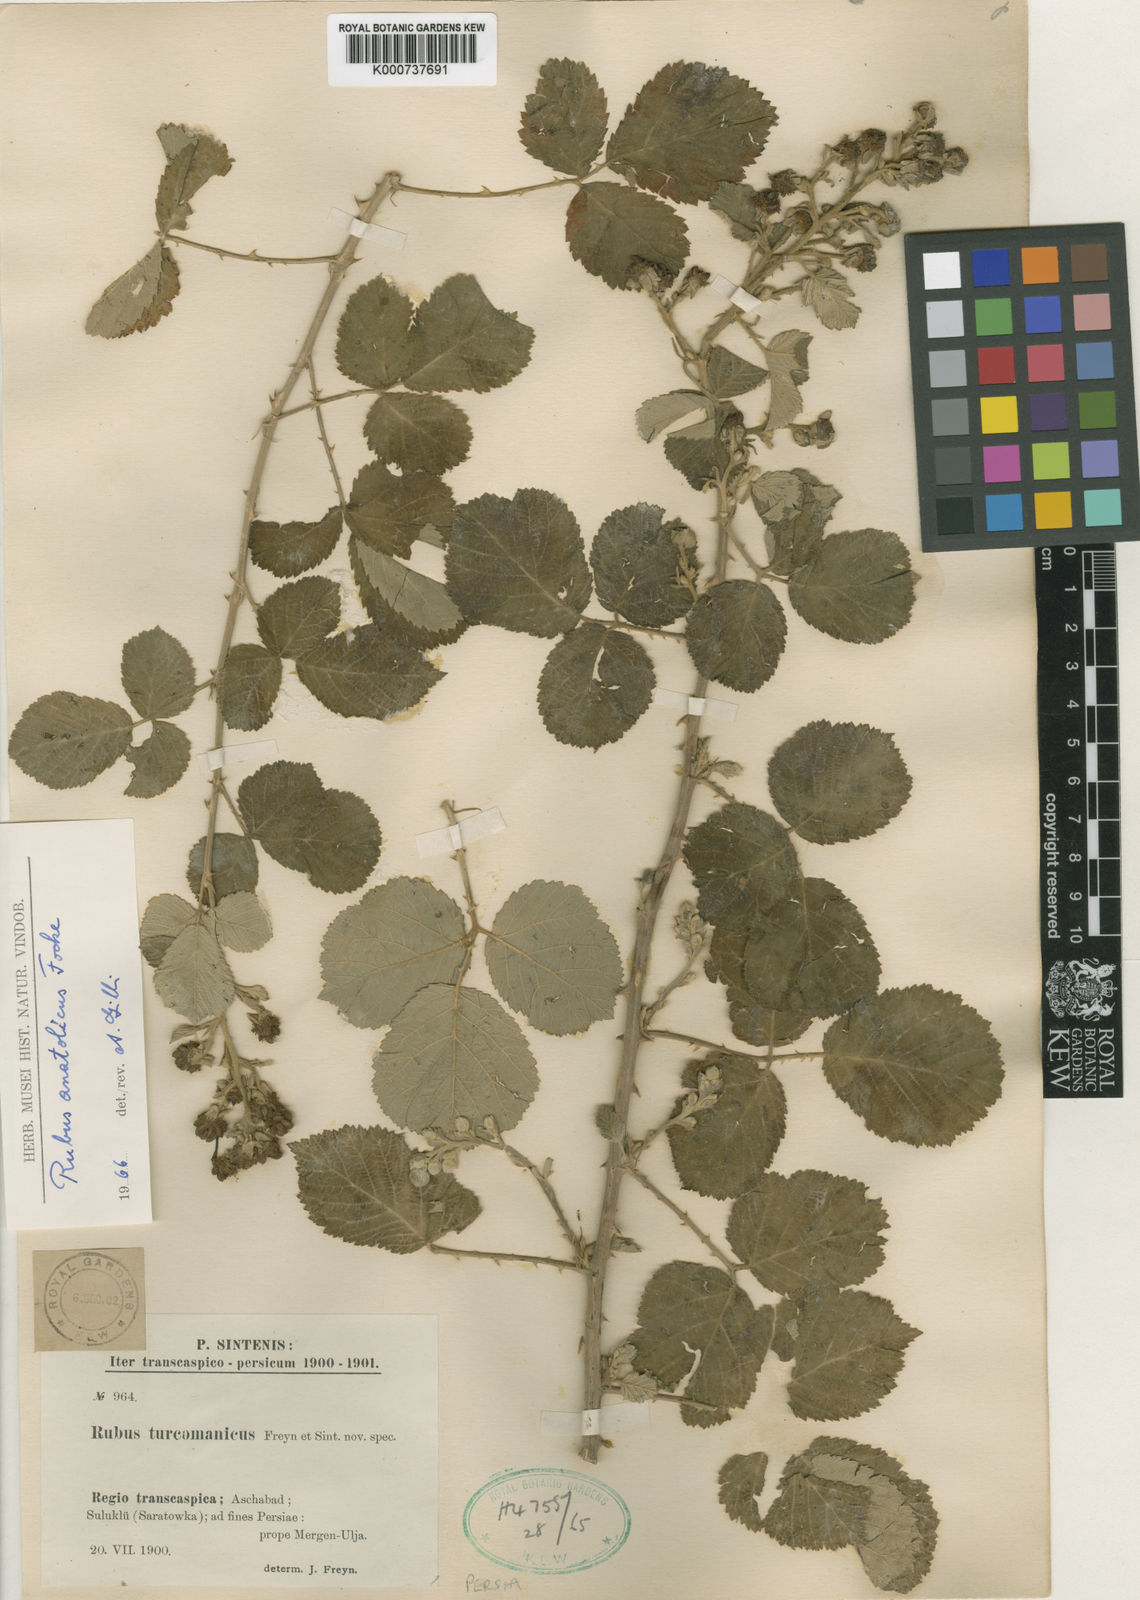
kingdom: Plantae
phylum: Tracheophyta
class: Magnoliopsida
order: Rosales
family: Rosaceae
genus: Rubus
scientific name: Rubus sanctus
